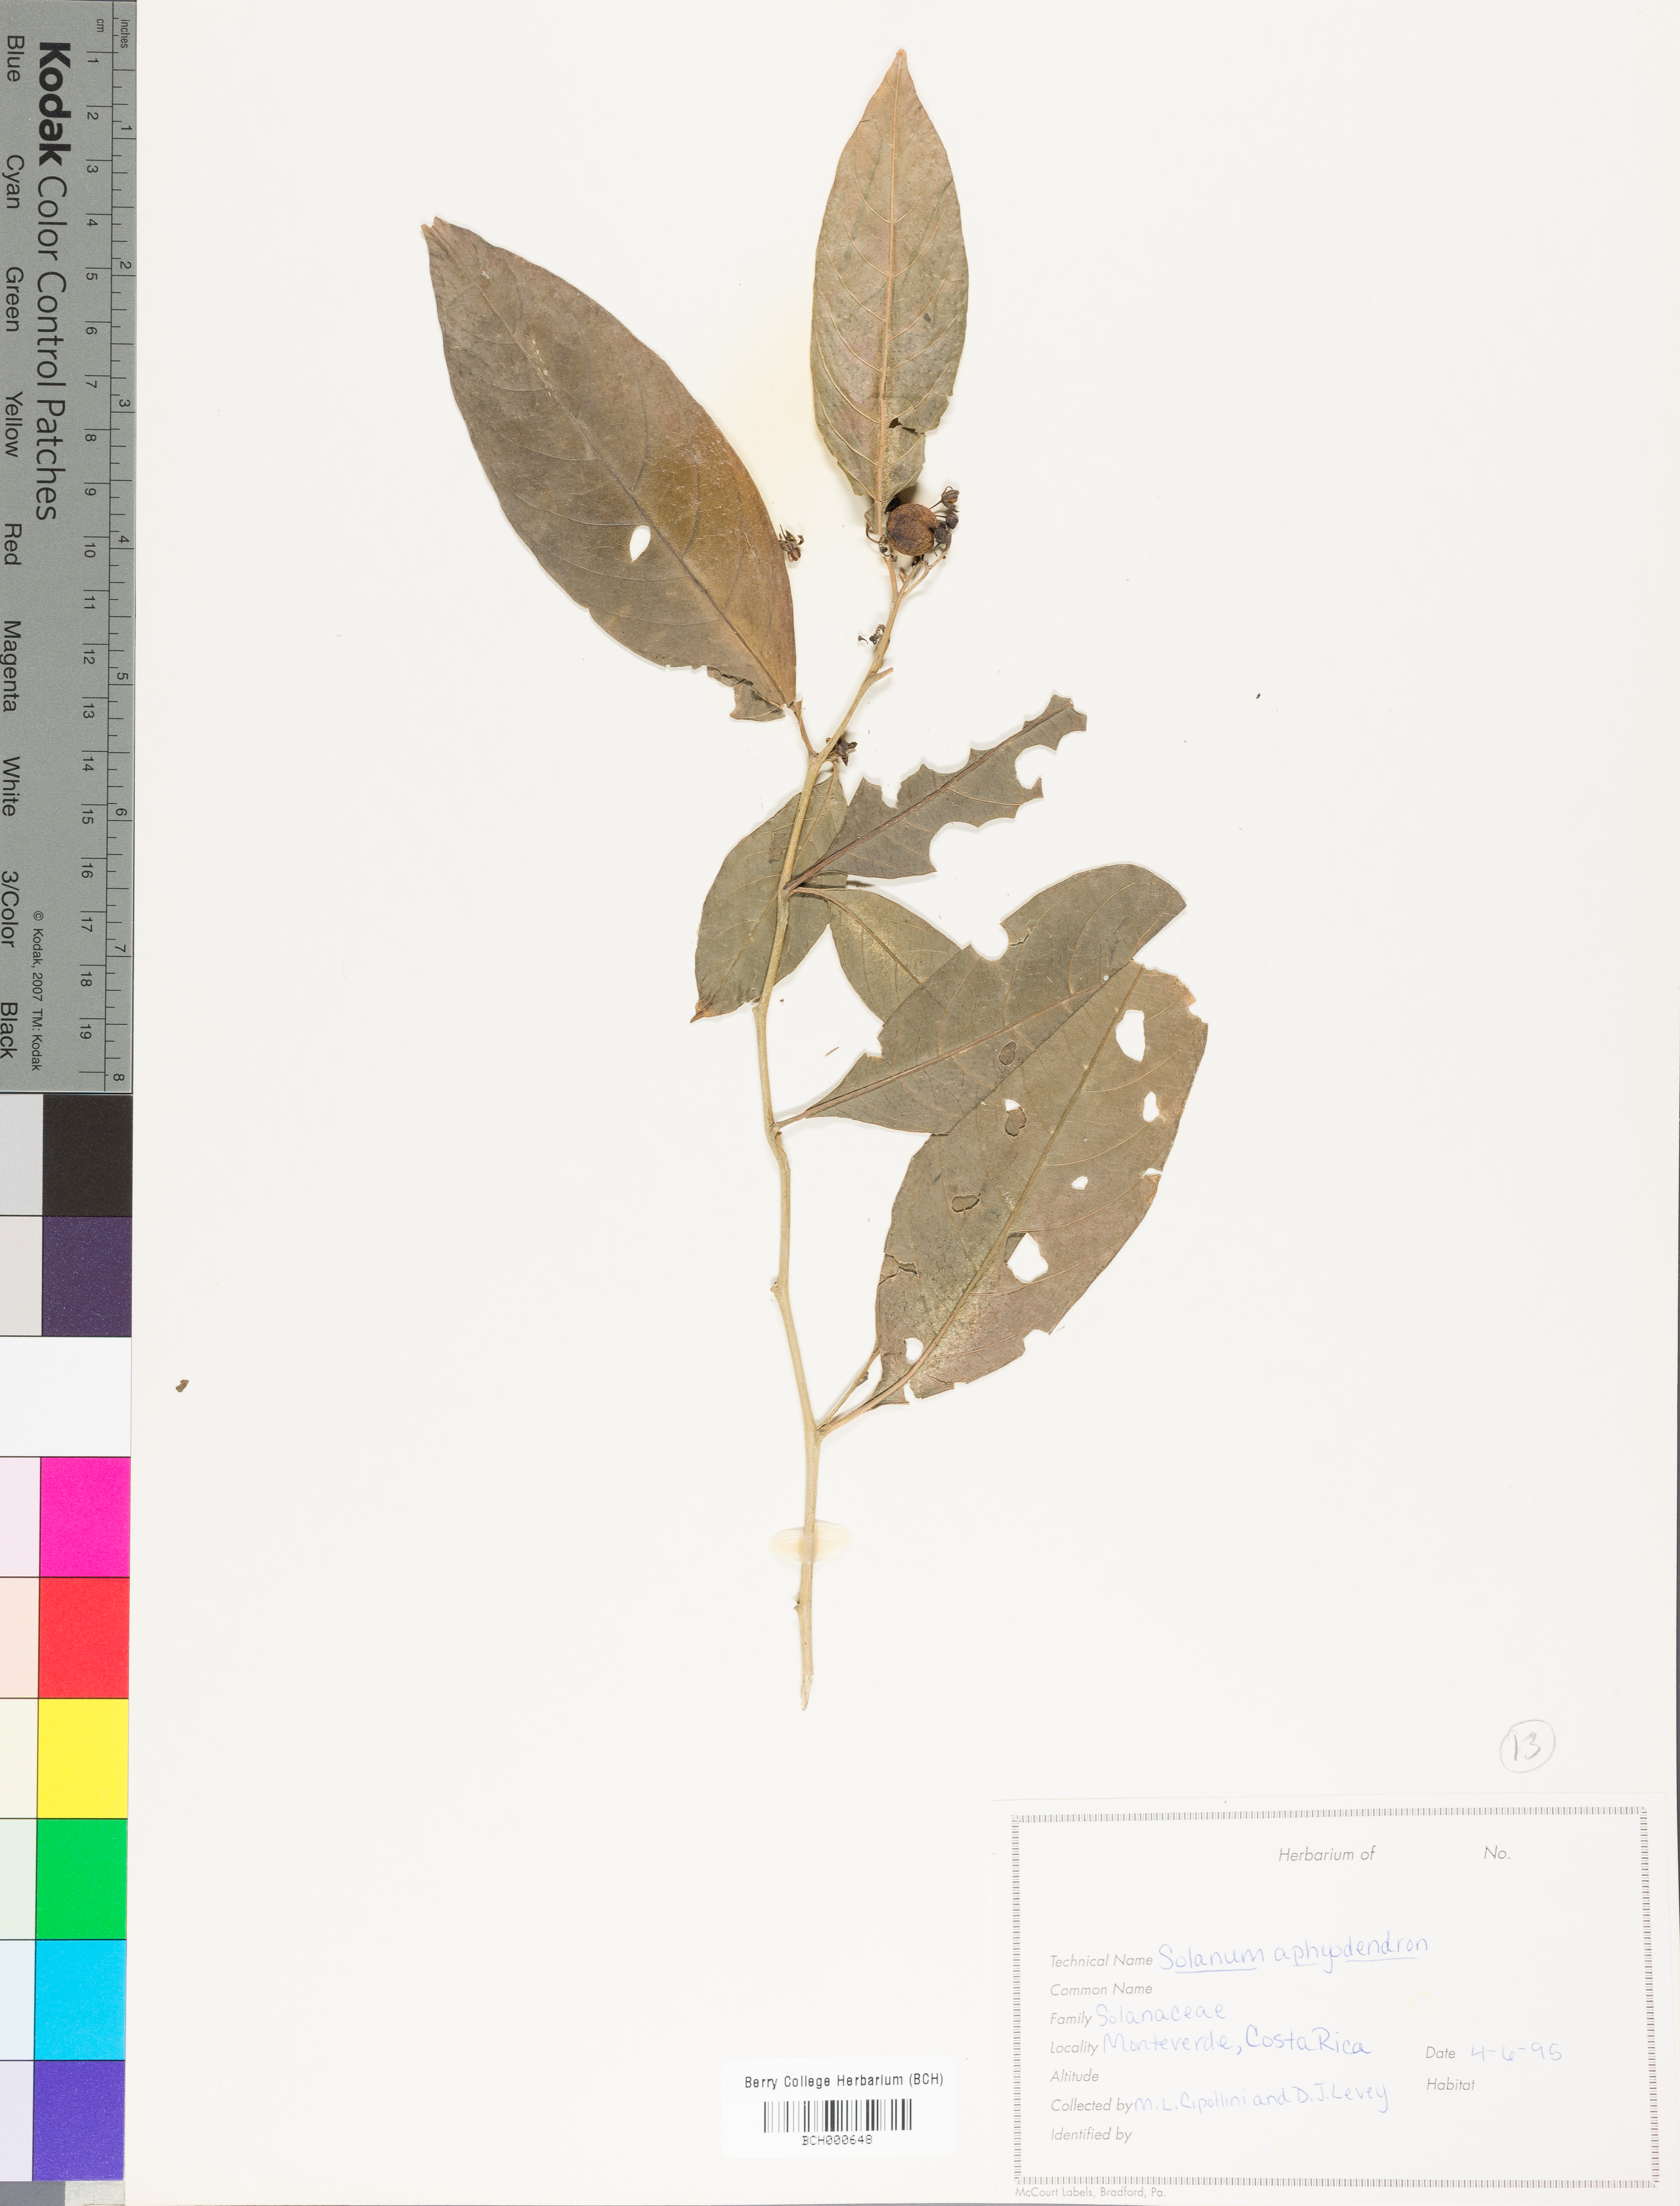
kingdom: Plantae
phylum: Tracheophyta
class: Magnoliopsida
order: Solanales
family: Solanaceae
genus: Solanum
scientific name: Solanum aphyodendron
